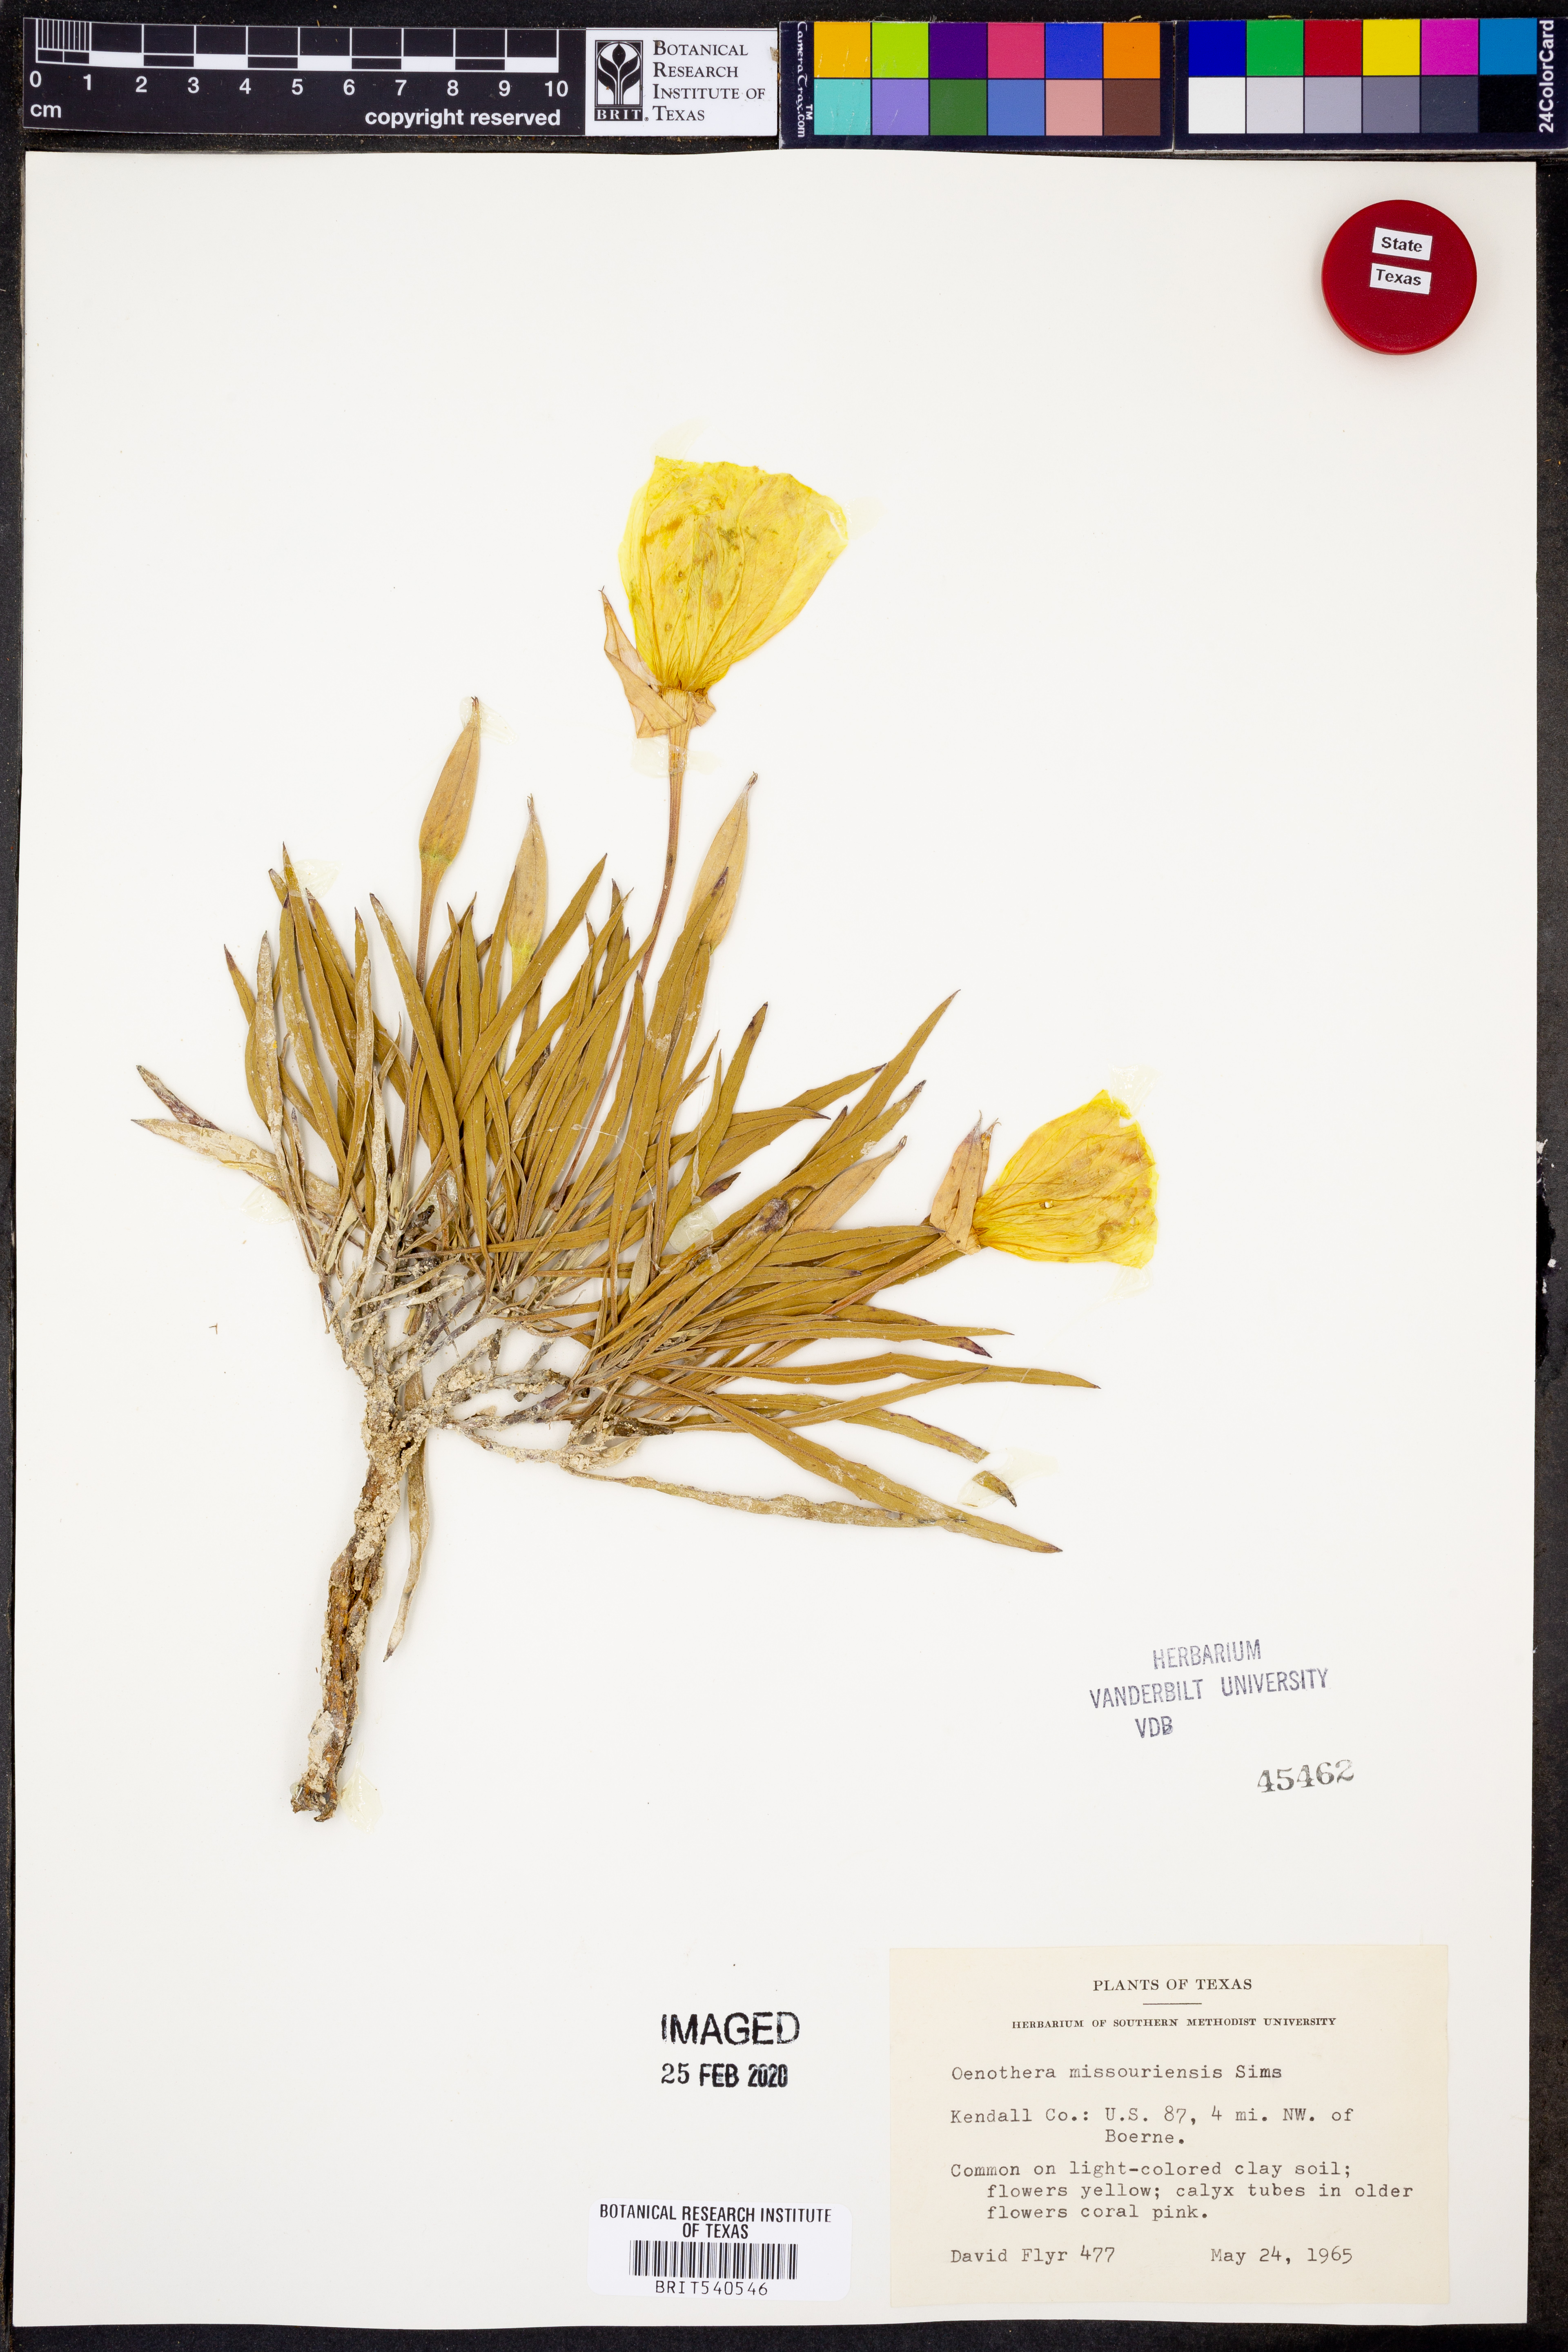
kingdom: Plantae
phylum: Tracheophyta
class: Magnoliopsida
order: Myrtales
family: Onagraceae
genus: Oenothera
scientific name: Oenothera macrocarpa
